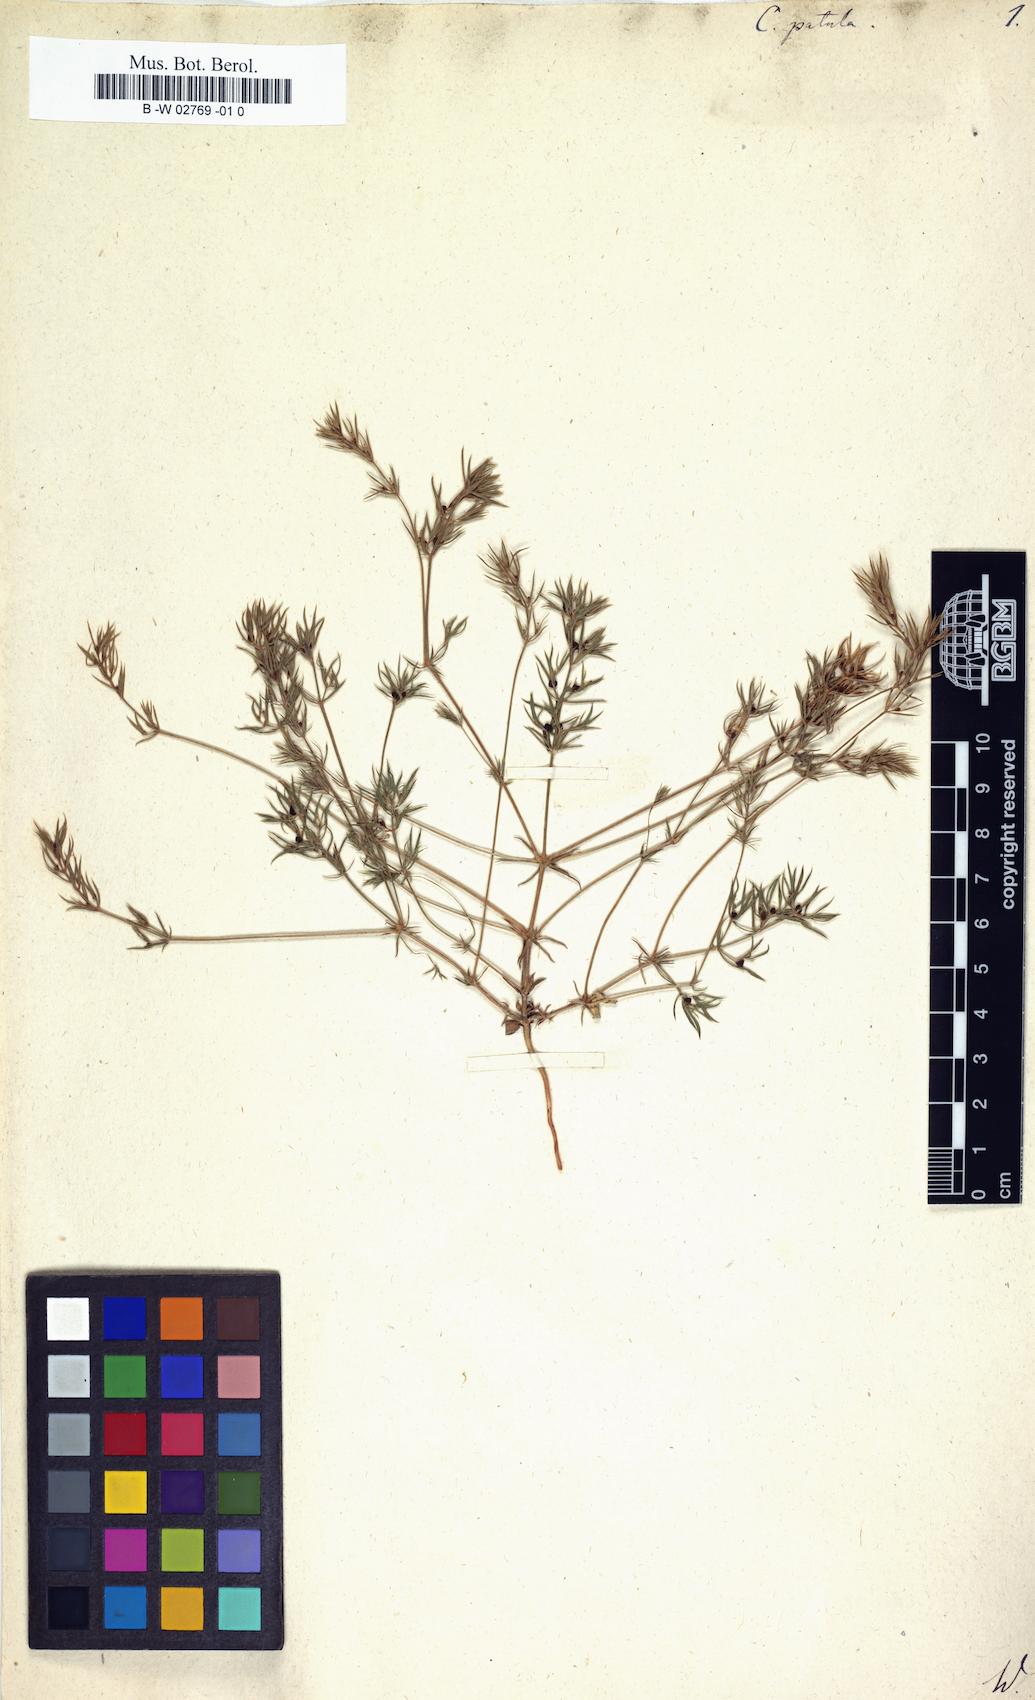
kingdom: Plantae
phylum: Tracheophyta
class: Magnoliopsida
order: Gentianales
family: Rubiaceae
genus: Crucianella
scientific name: Crucianella patula
